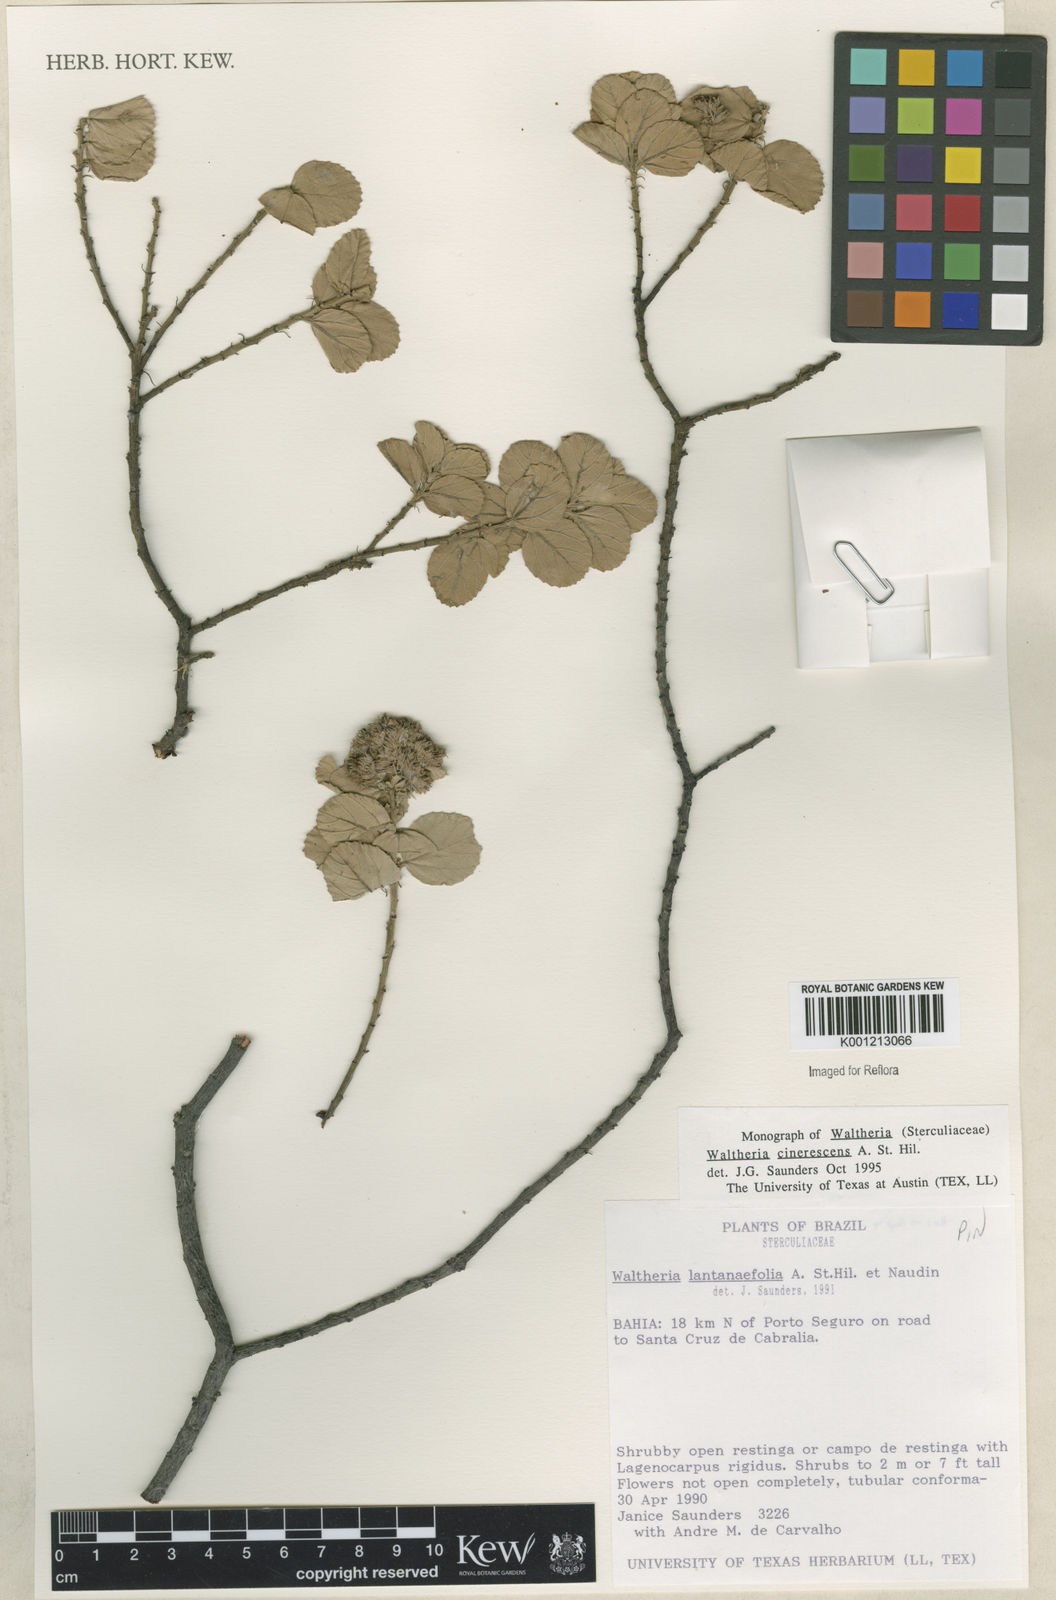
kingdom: Plantae
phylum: Tracheophyta
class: Magnoliopsida
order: Malvales
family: Malvaceae
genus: Waltheria
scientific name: Waltheria cinerescens
